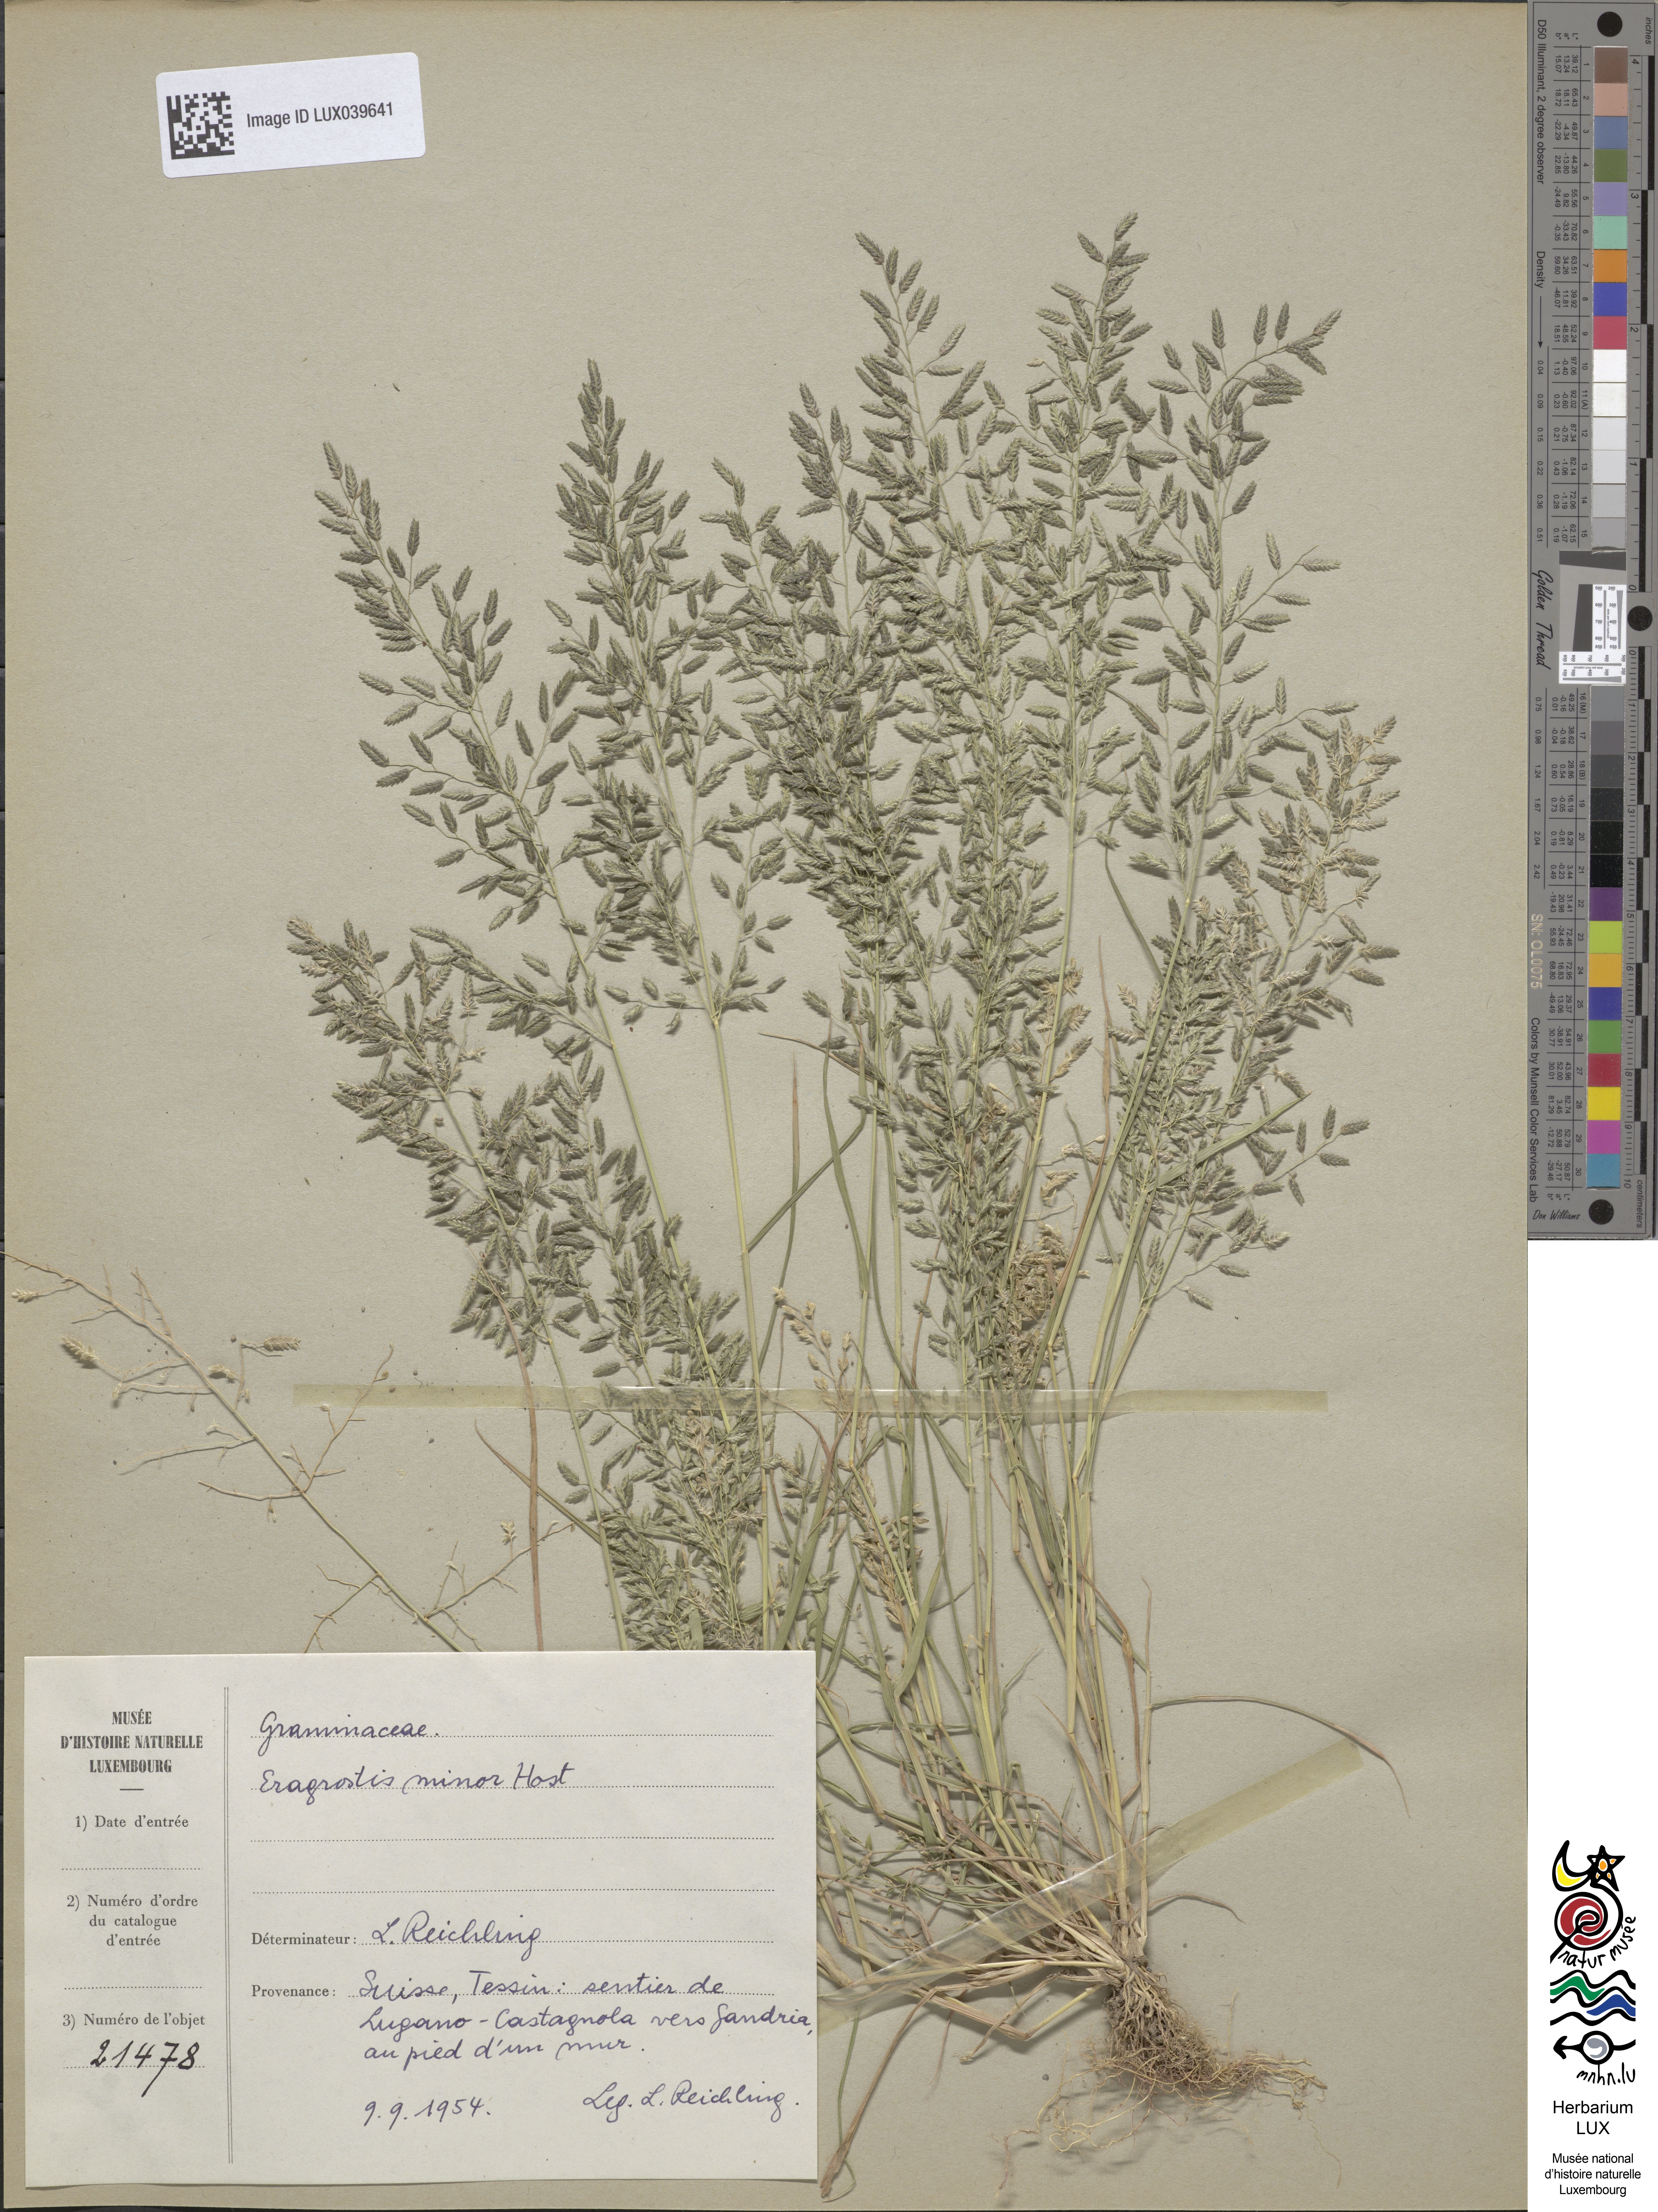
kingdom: Plantae
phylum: Tracheophyta
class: Liliopsida
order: Poales
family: Poaceae
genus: Eragrostis
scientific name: Eragrostis minor
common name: Small love-grass
